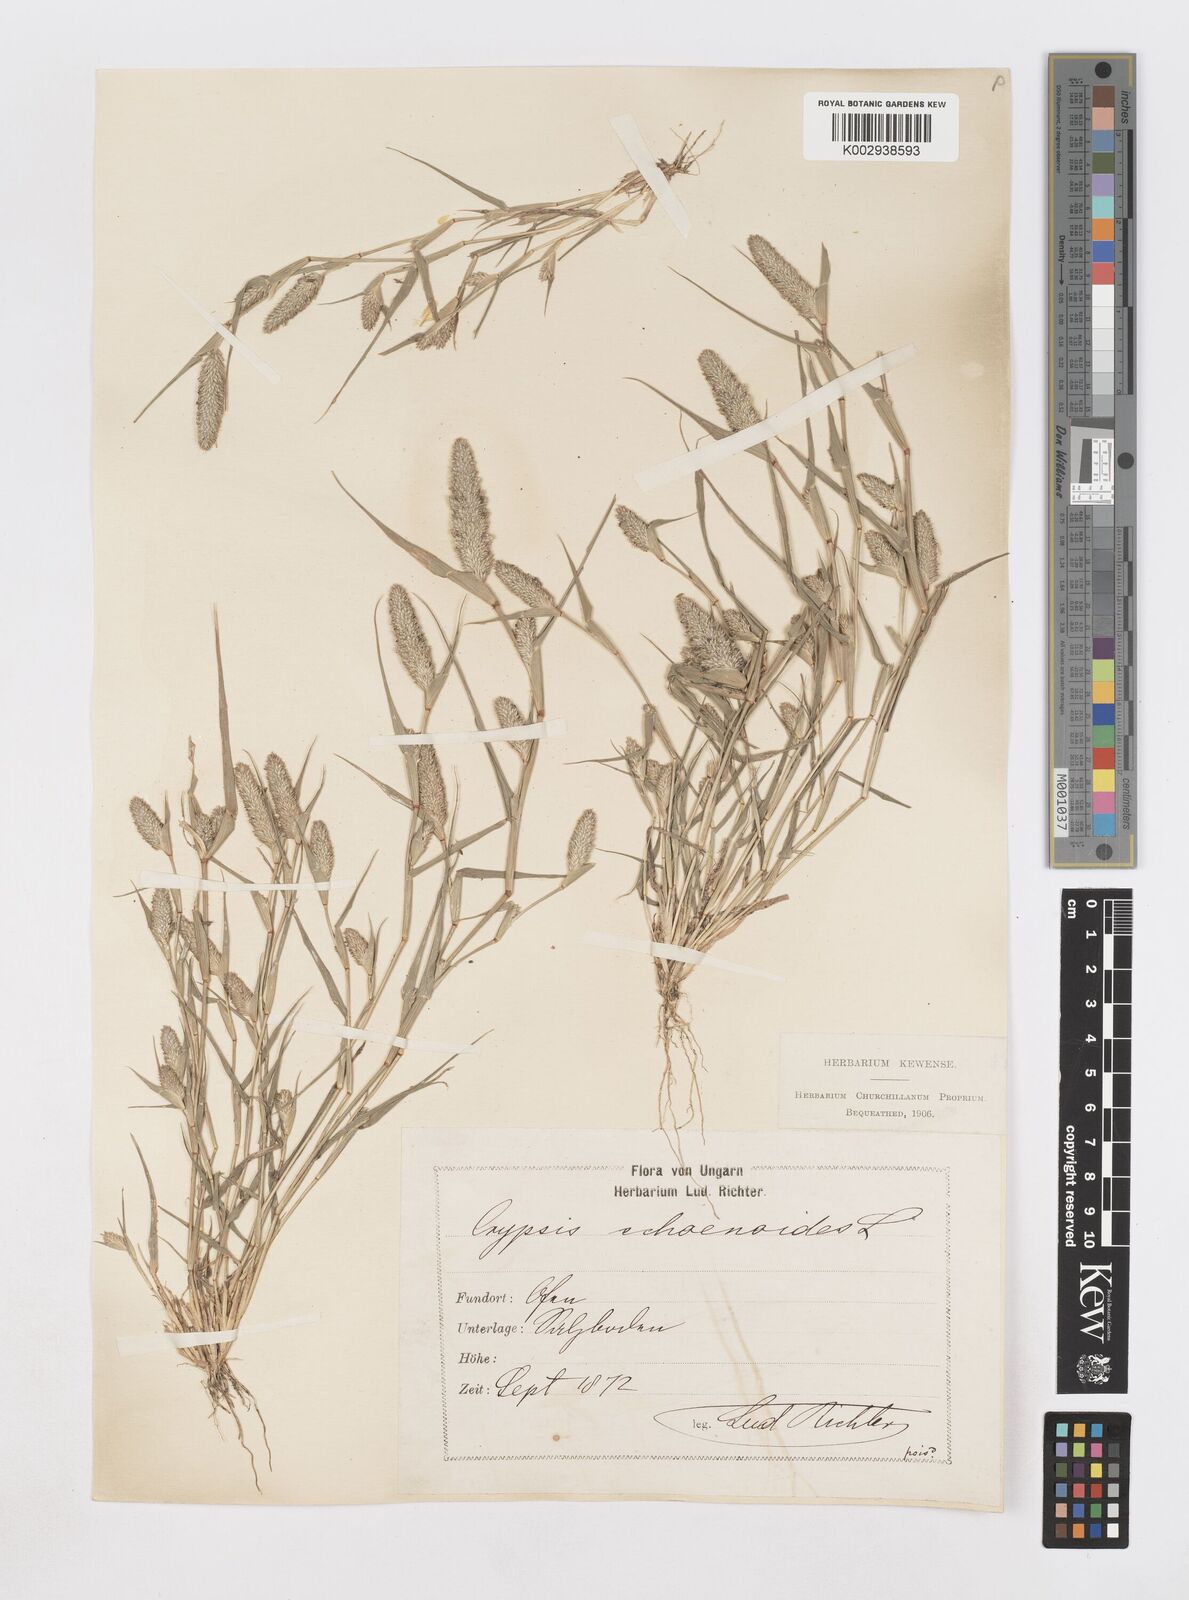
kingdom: Plantae
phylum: Tracheophyta
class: Liliopsida
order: Poales
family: Poaceae
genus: Sporobolus
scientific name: Sporobolus schoenoides
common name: Rush-like timothy
